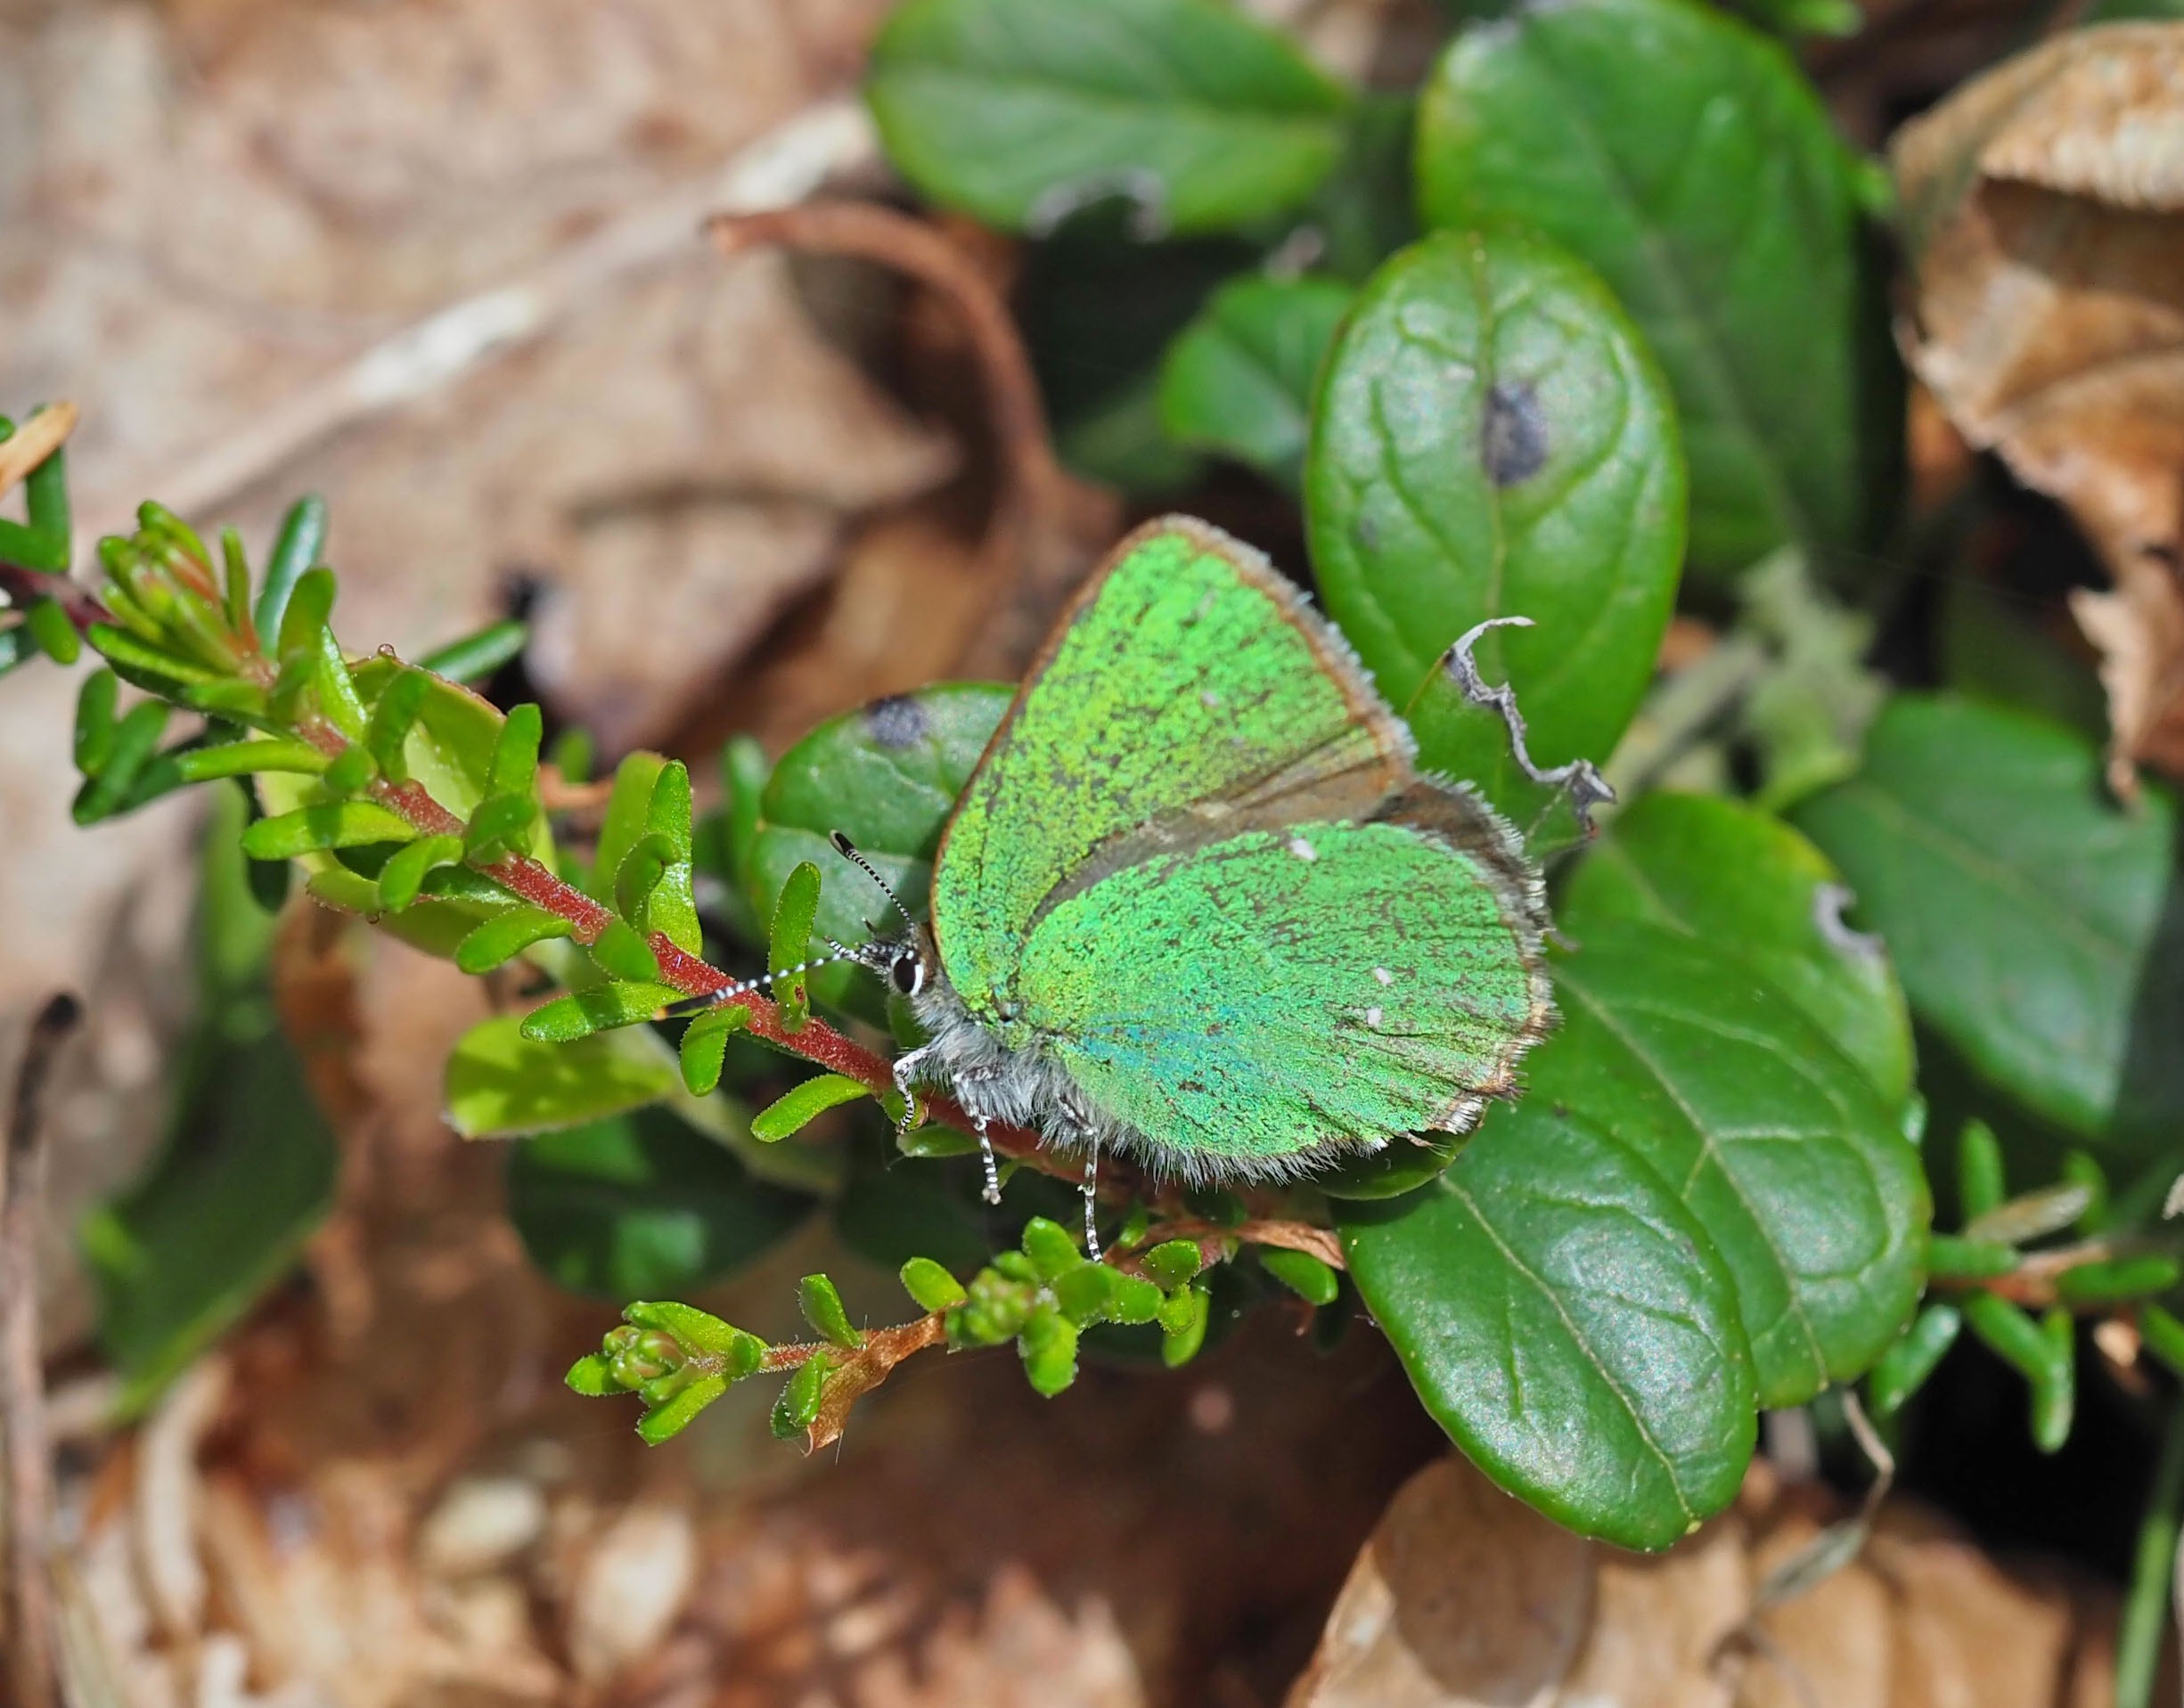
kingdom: Animalia
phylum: Arthropoda
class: Insecta
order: Lepidoptera
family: Lycaenidae
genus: Callophrys
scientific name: Callophrys rubi
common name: Grøn busksommerfugl
